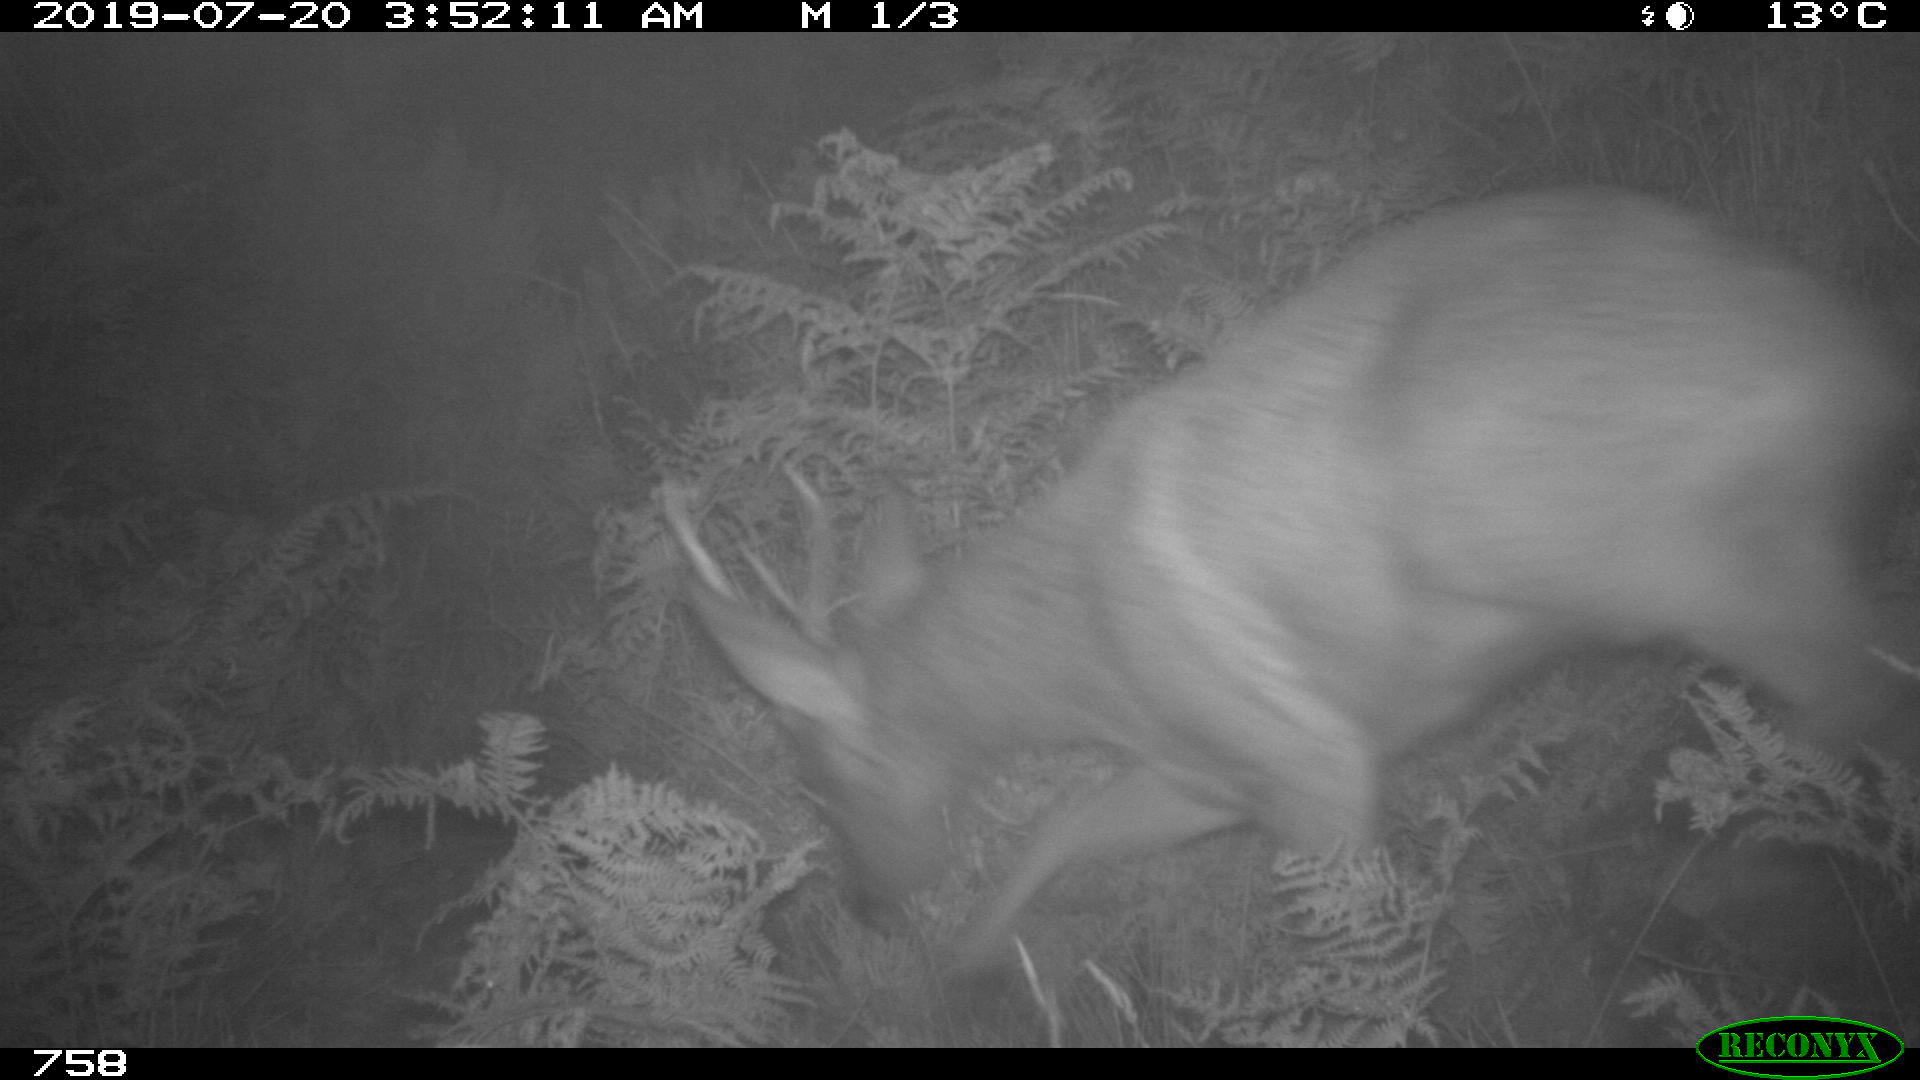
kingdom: Animalia
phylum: Chordata
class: Mammalia
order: Artiodactyla
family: Cervidae
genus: Capreolus
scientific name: Capreolus capreolus
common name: Western roe deer
